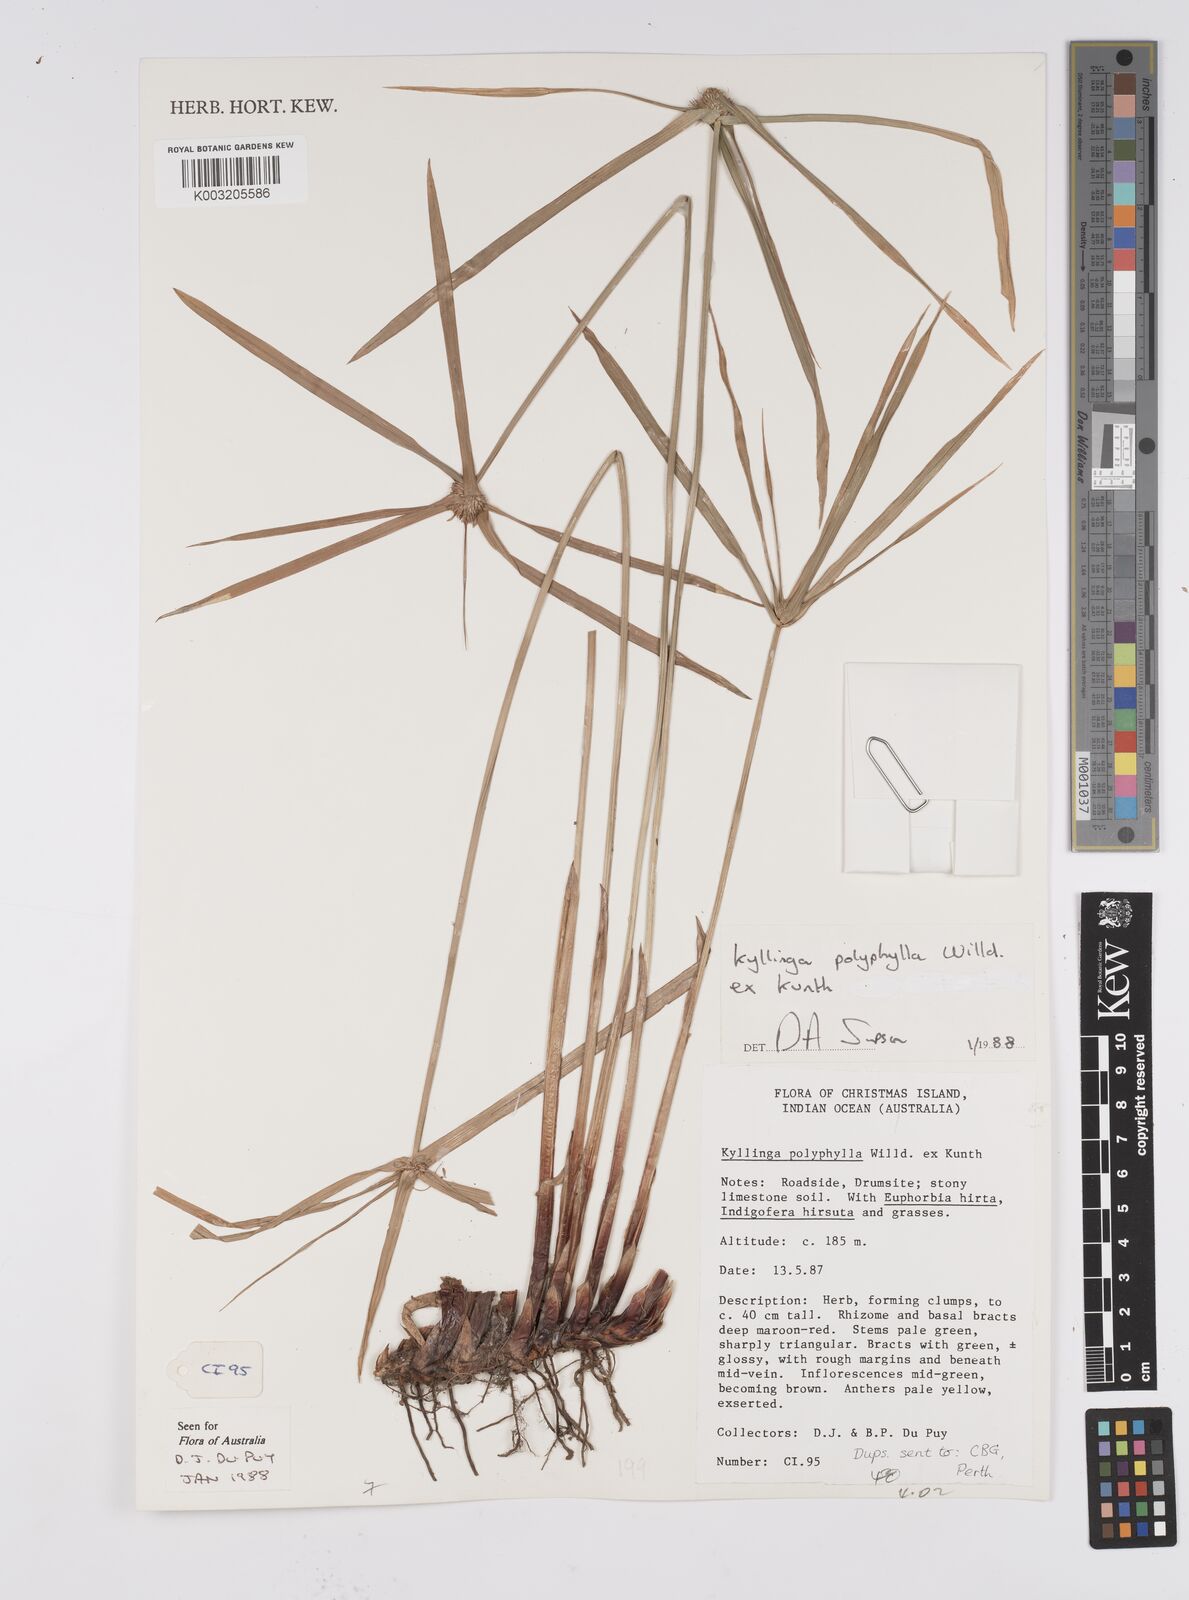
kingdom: Plantae
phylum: Tracheophyta
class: Liliopsida
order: Poales
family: Cyperaceae
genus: Cyperus
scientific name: Cyperus
